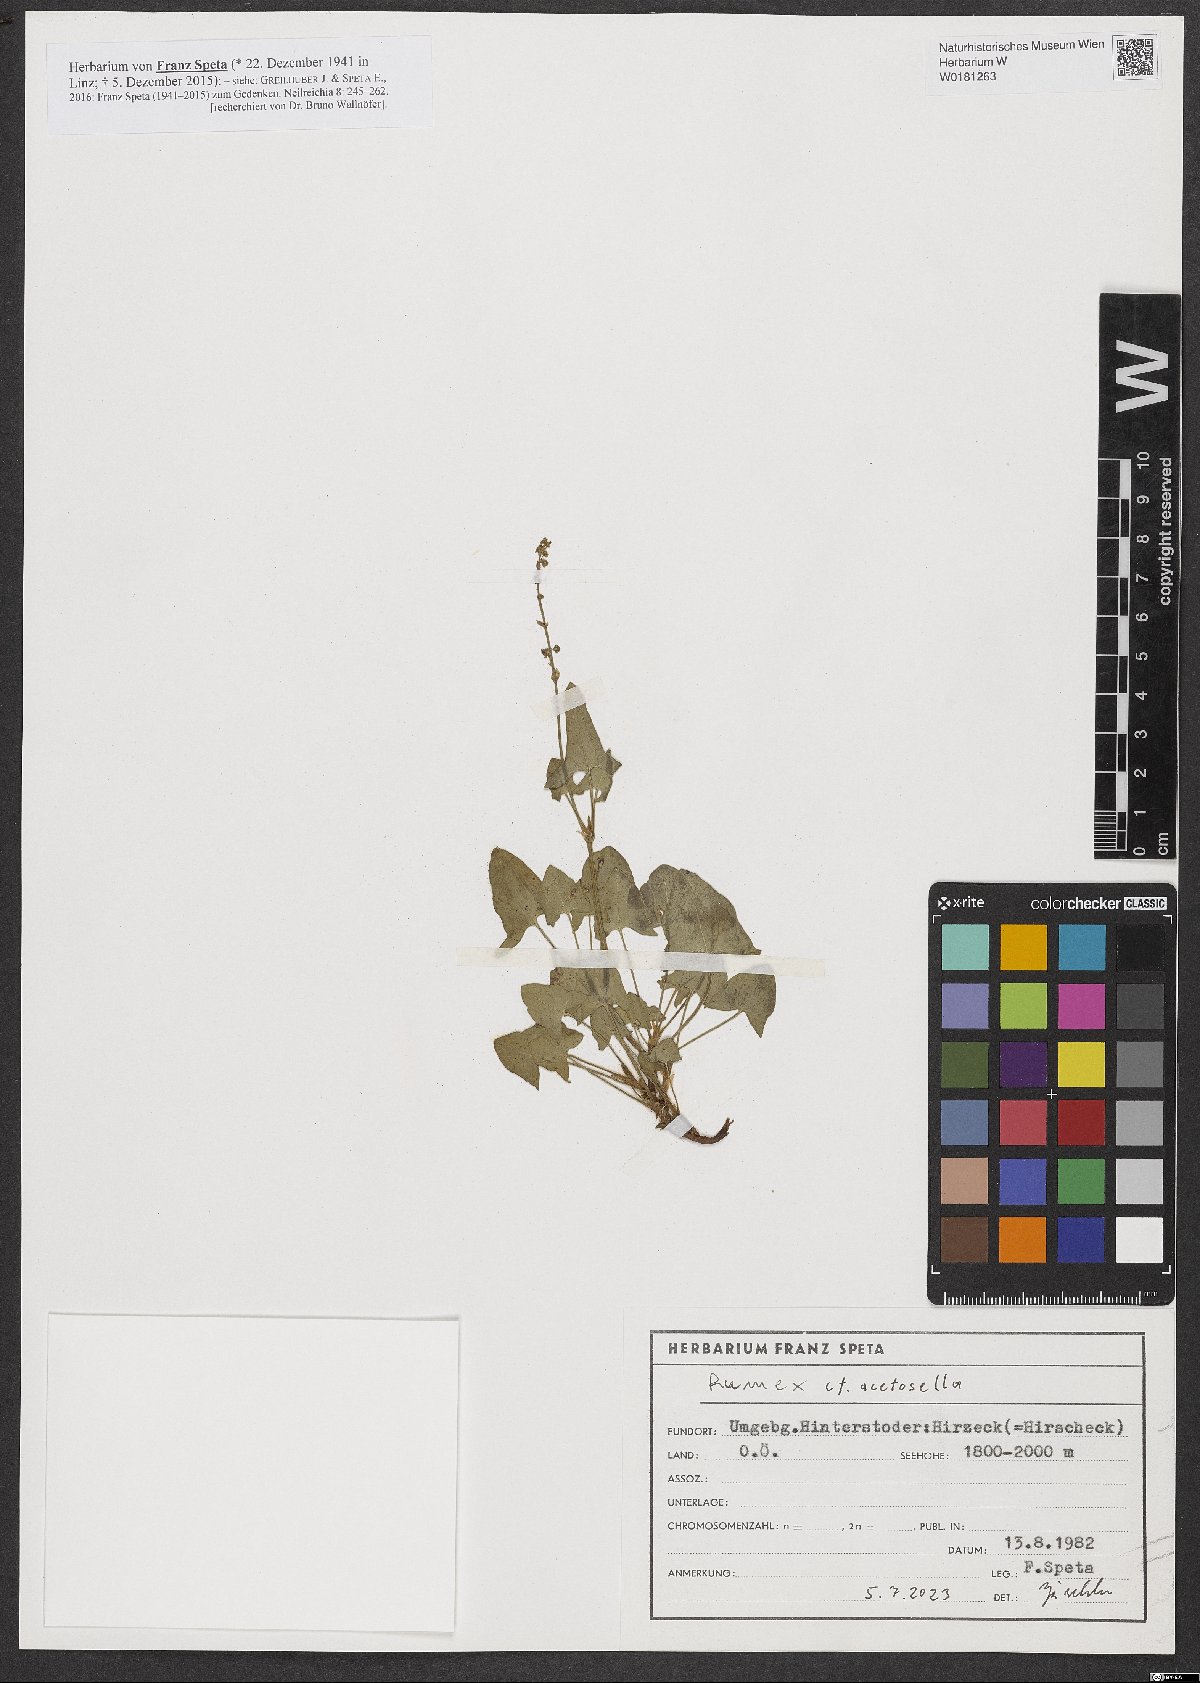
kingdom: Plantae
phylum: Tracheophyta
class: Magnoliopsida
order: Caryophyllales
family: Polygonaceae
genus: Rumex
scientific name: Rumex acetosella
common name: Common sheep sorrel
